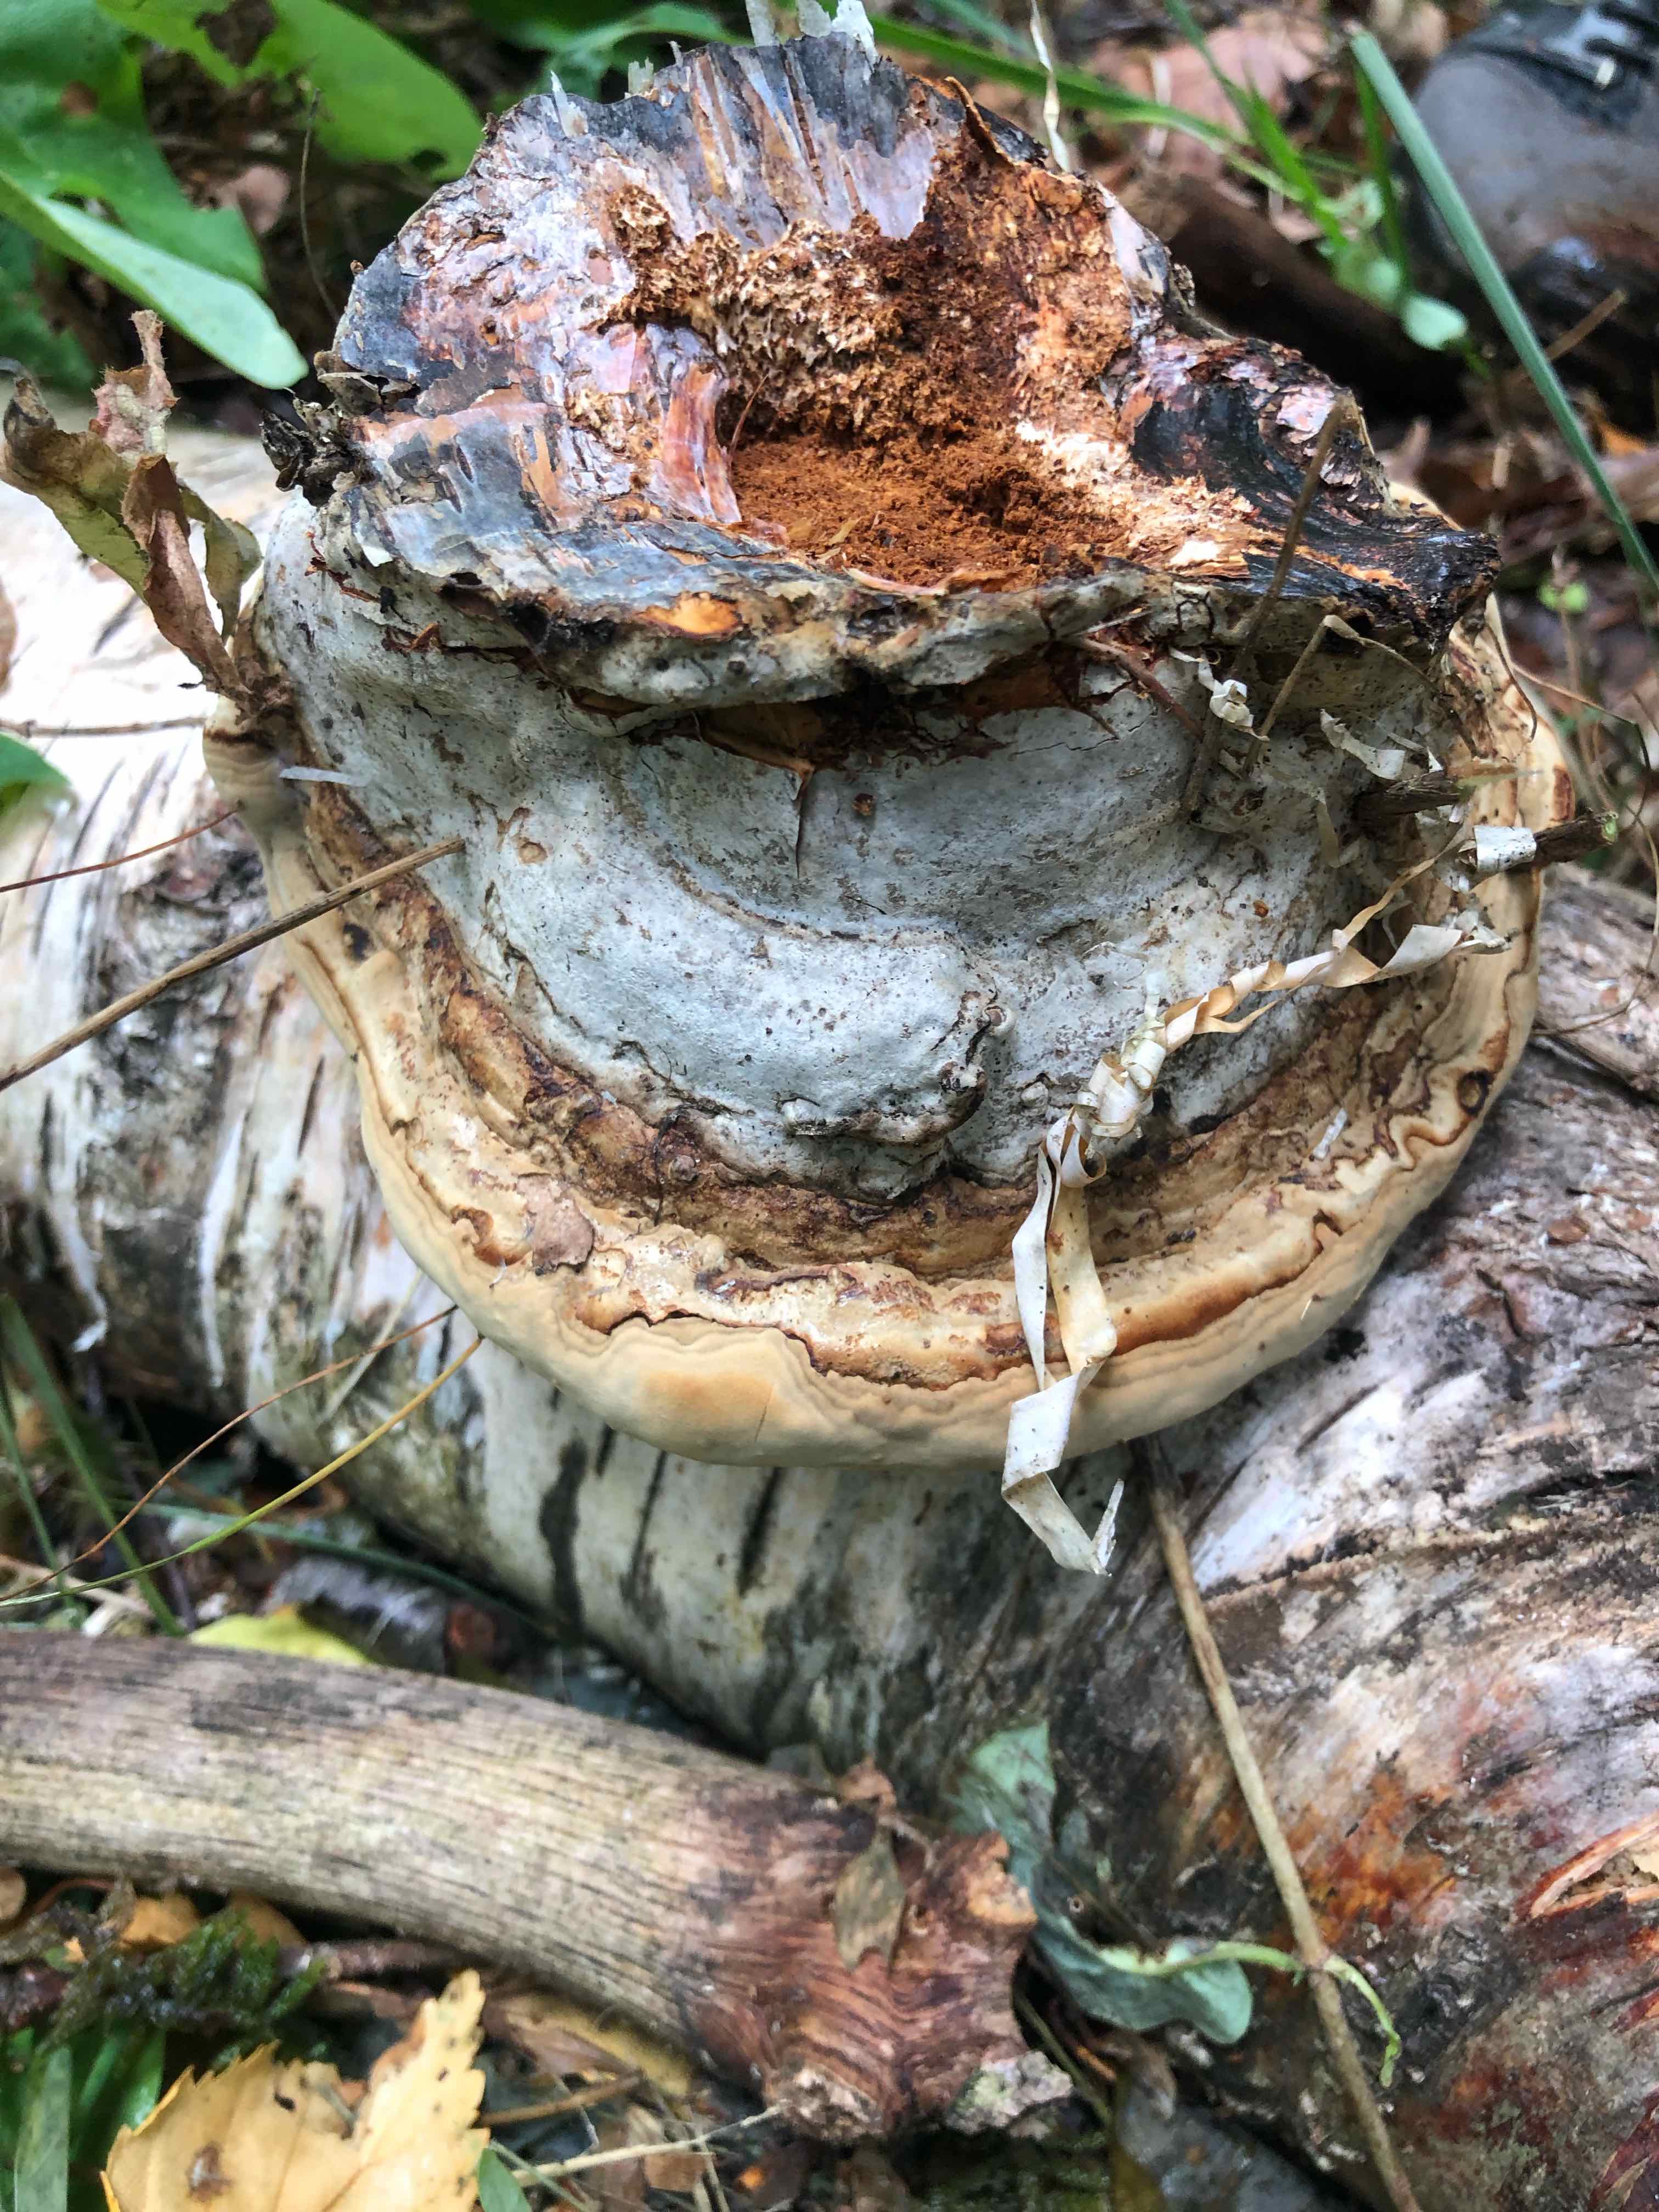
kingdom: Fungi
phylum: Basidiomycota
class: Agaricomycetes
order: Polyporales
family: Polyporaceae
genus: Fomes
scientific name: Fomes fomentarius
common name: tøndersvamp
